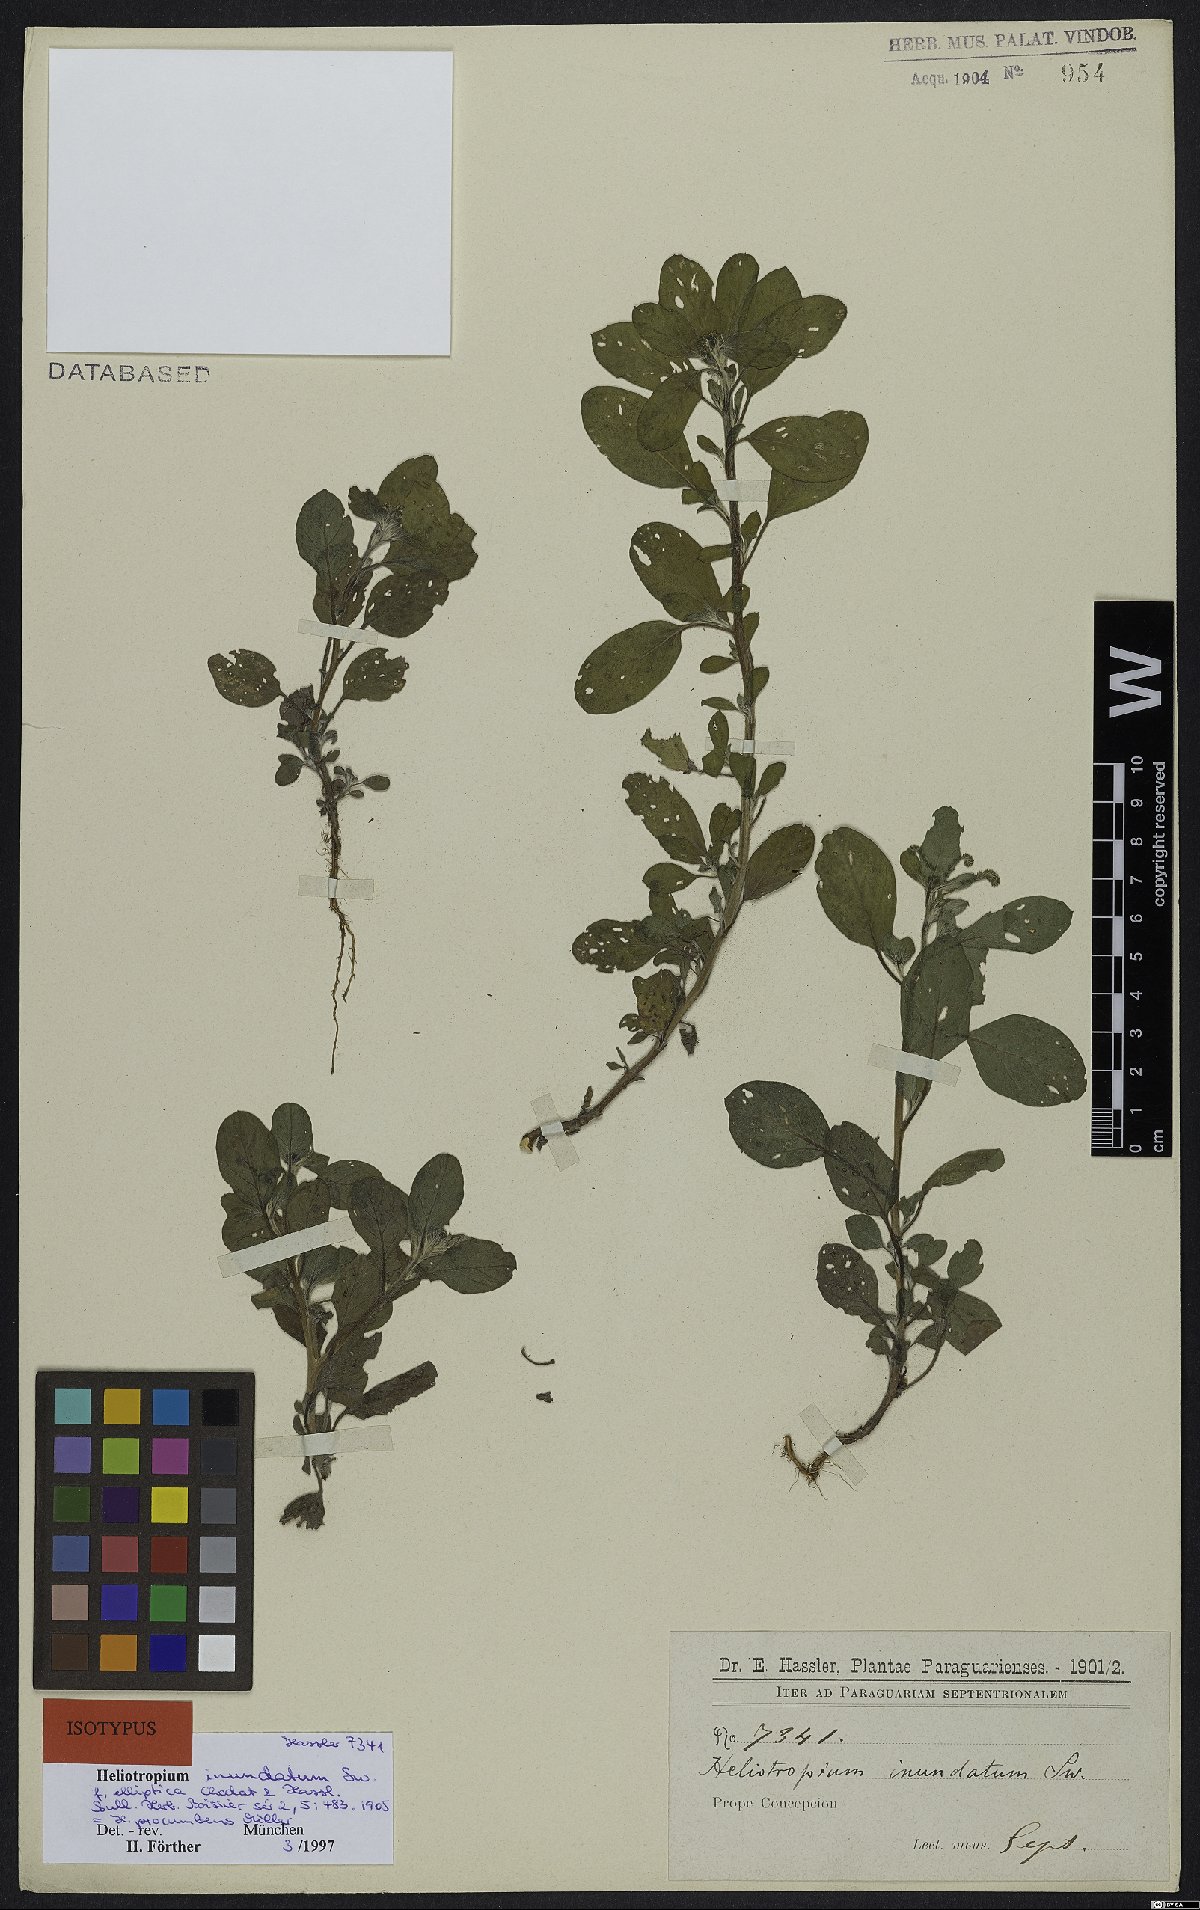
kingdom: Plantae
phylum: Tracheophyta
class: Magnoliopsida
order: Boraginales
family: Heliotropiaceae
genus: Euploca
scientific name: Euploca procumbens
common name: Fourspike heliotrope
